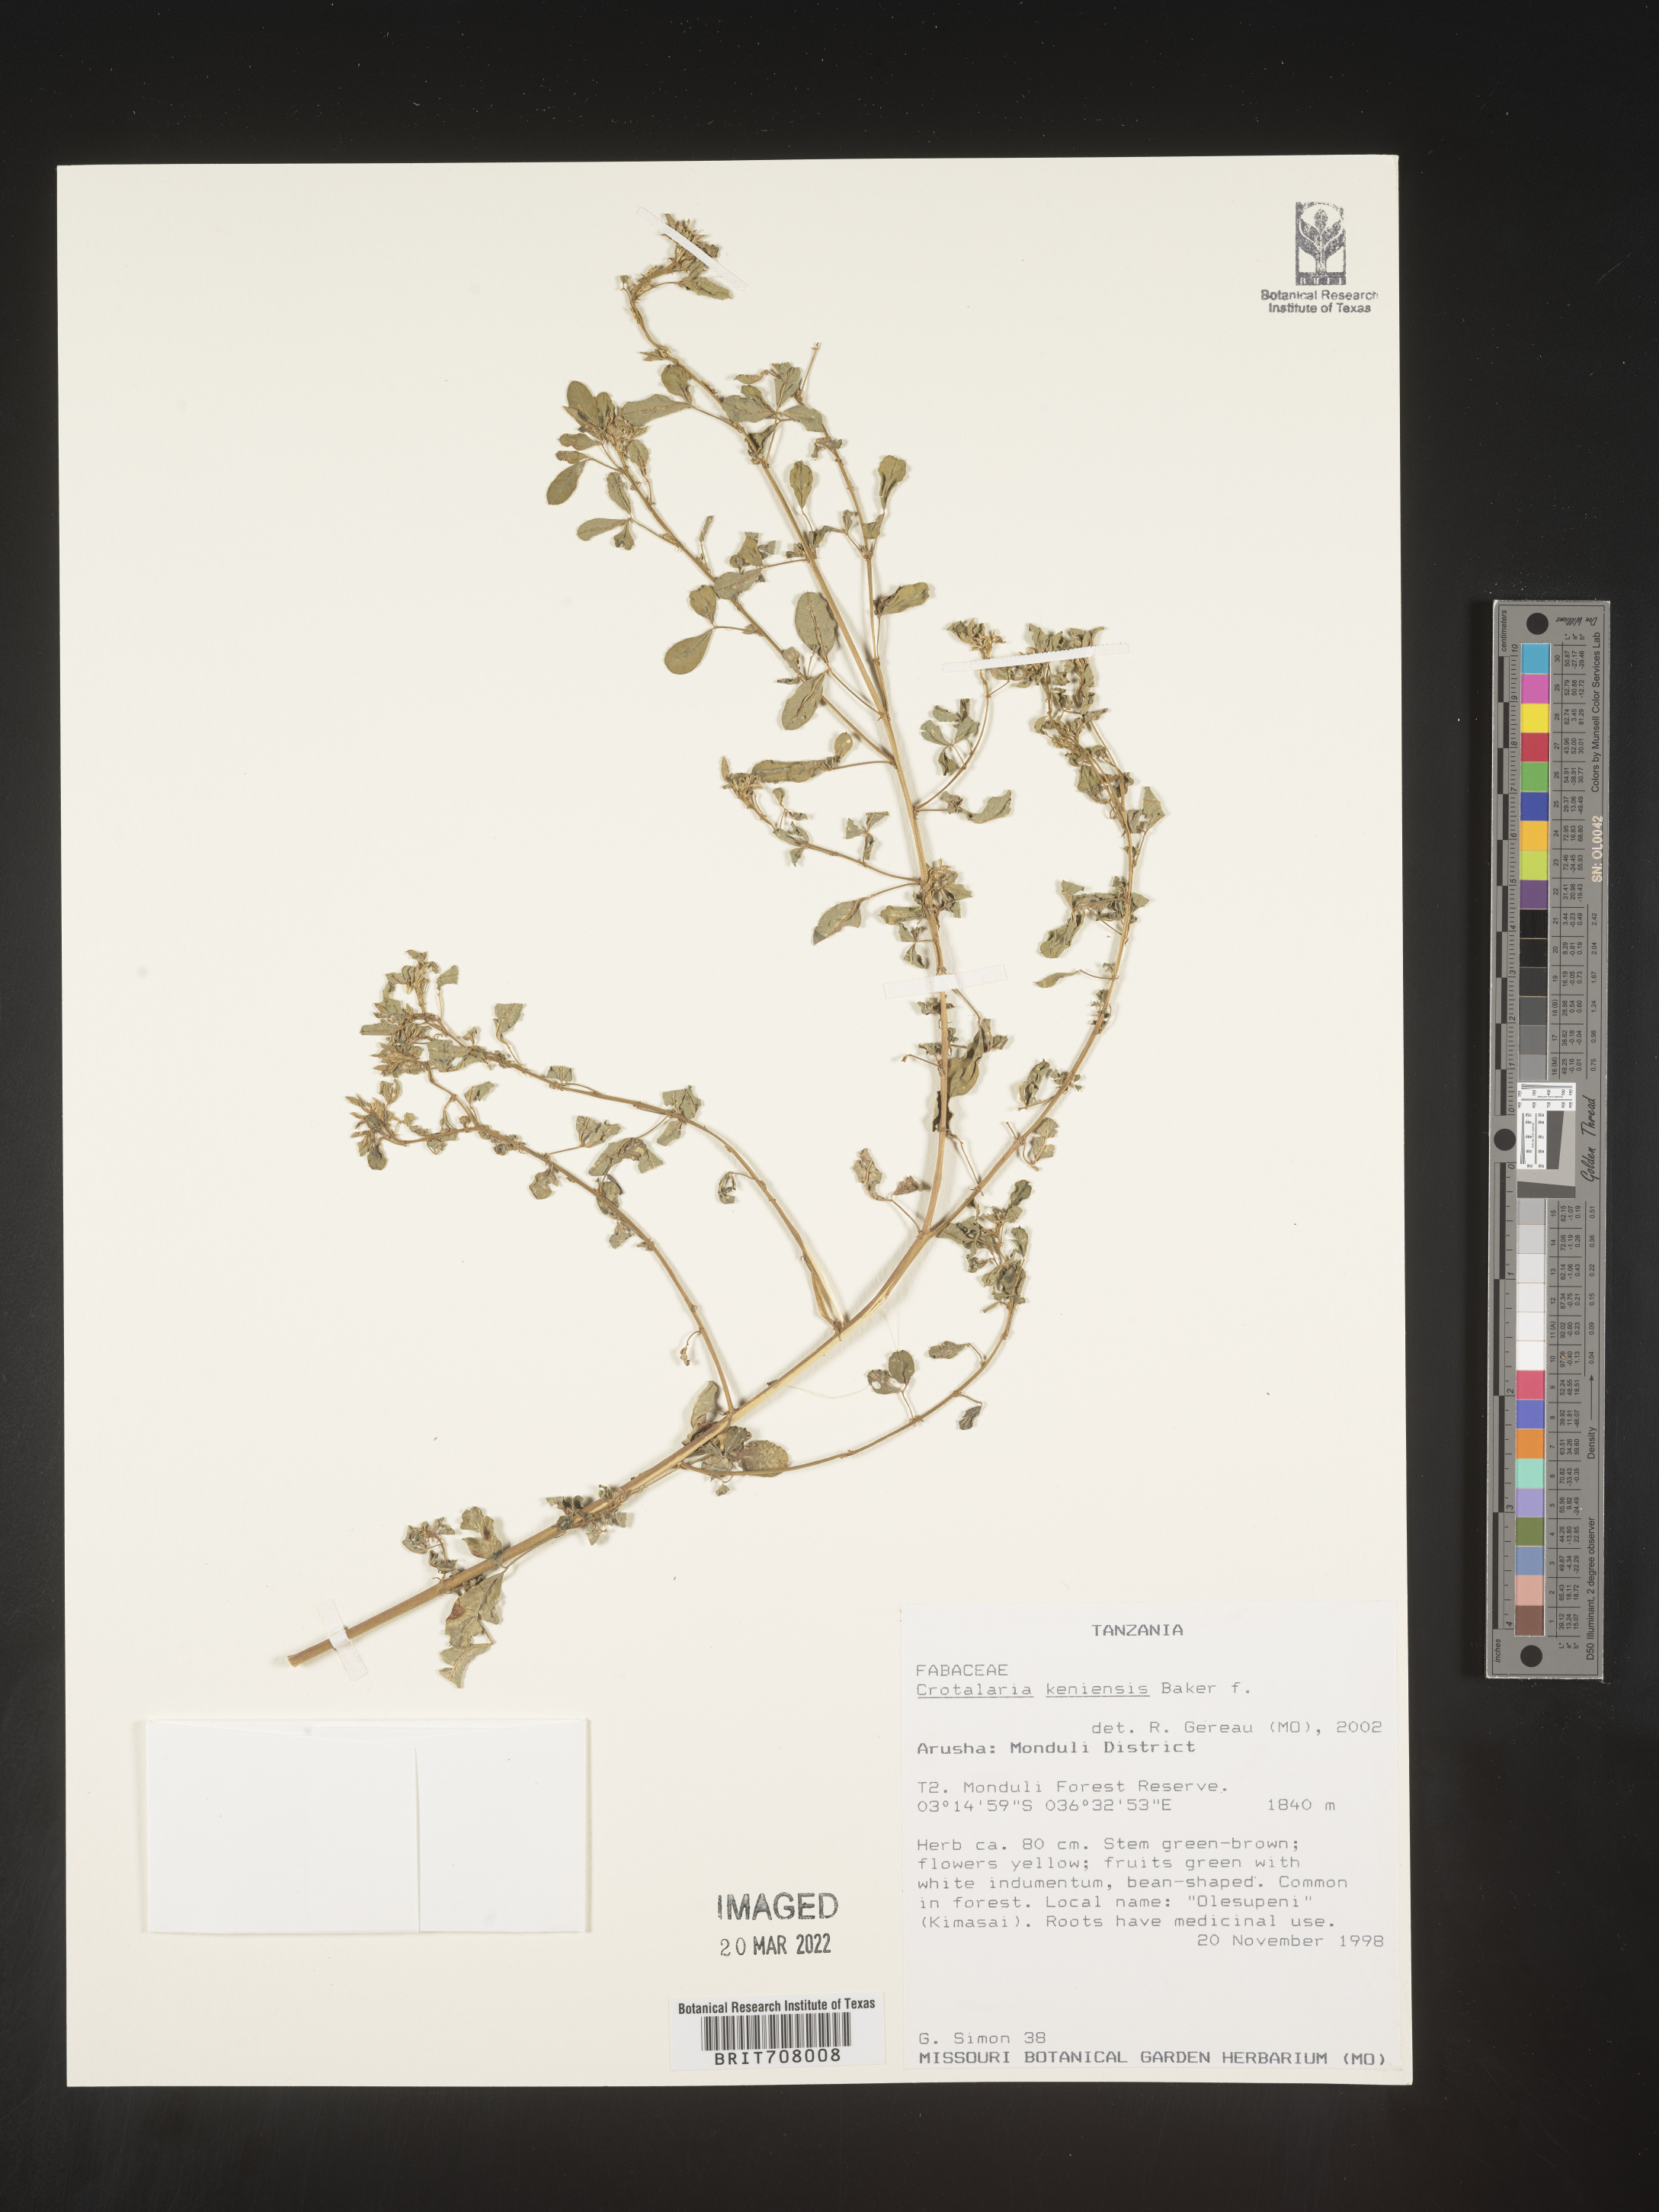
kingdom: Plantae
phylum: Tracheophyta
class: Magnoliopsida
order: Fabales
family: Fabaceae
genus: Crotalaria
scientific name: Crotalaria
